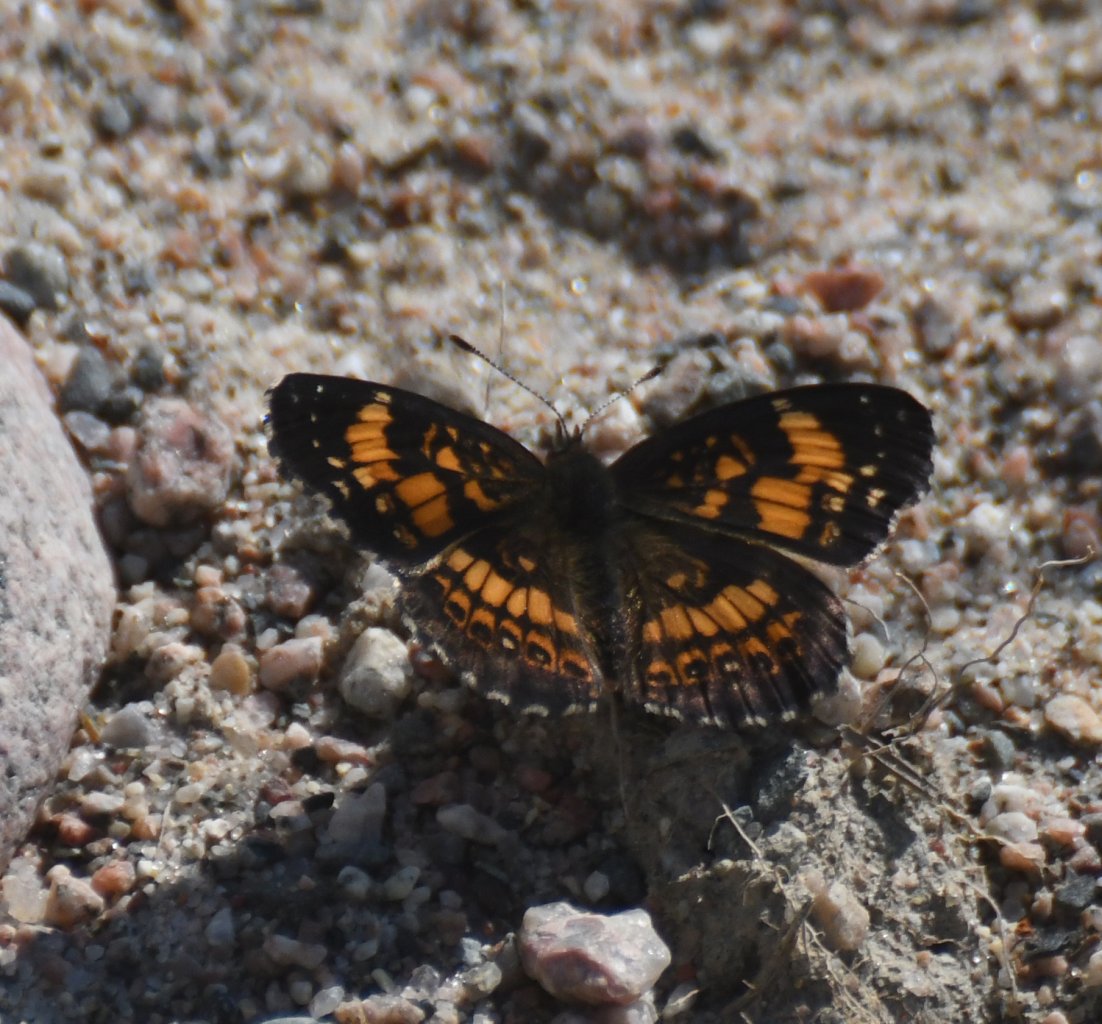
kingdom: Animalia
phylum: Arthropoda
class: Insecta
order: Lepidoptera
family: Nymphalidae
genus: Chlosyne
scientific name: Chlosyne nycteis
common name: Silvery Checkerspot
